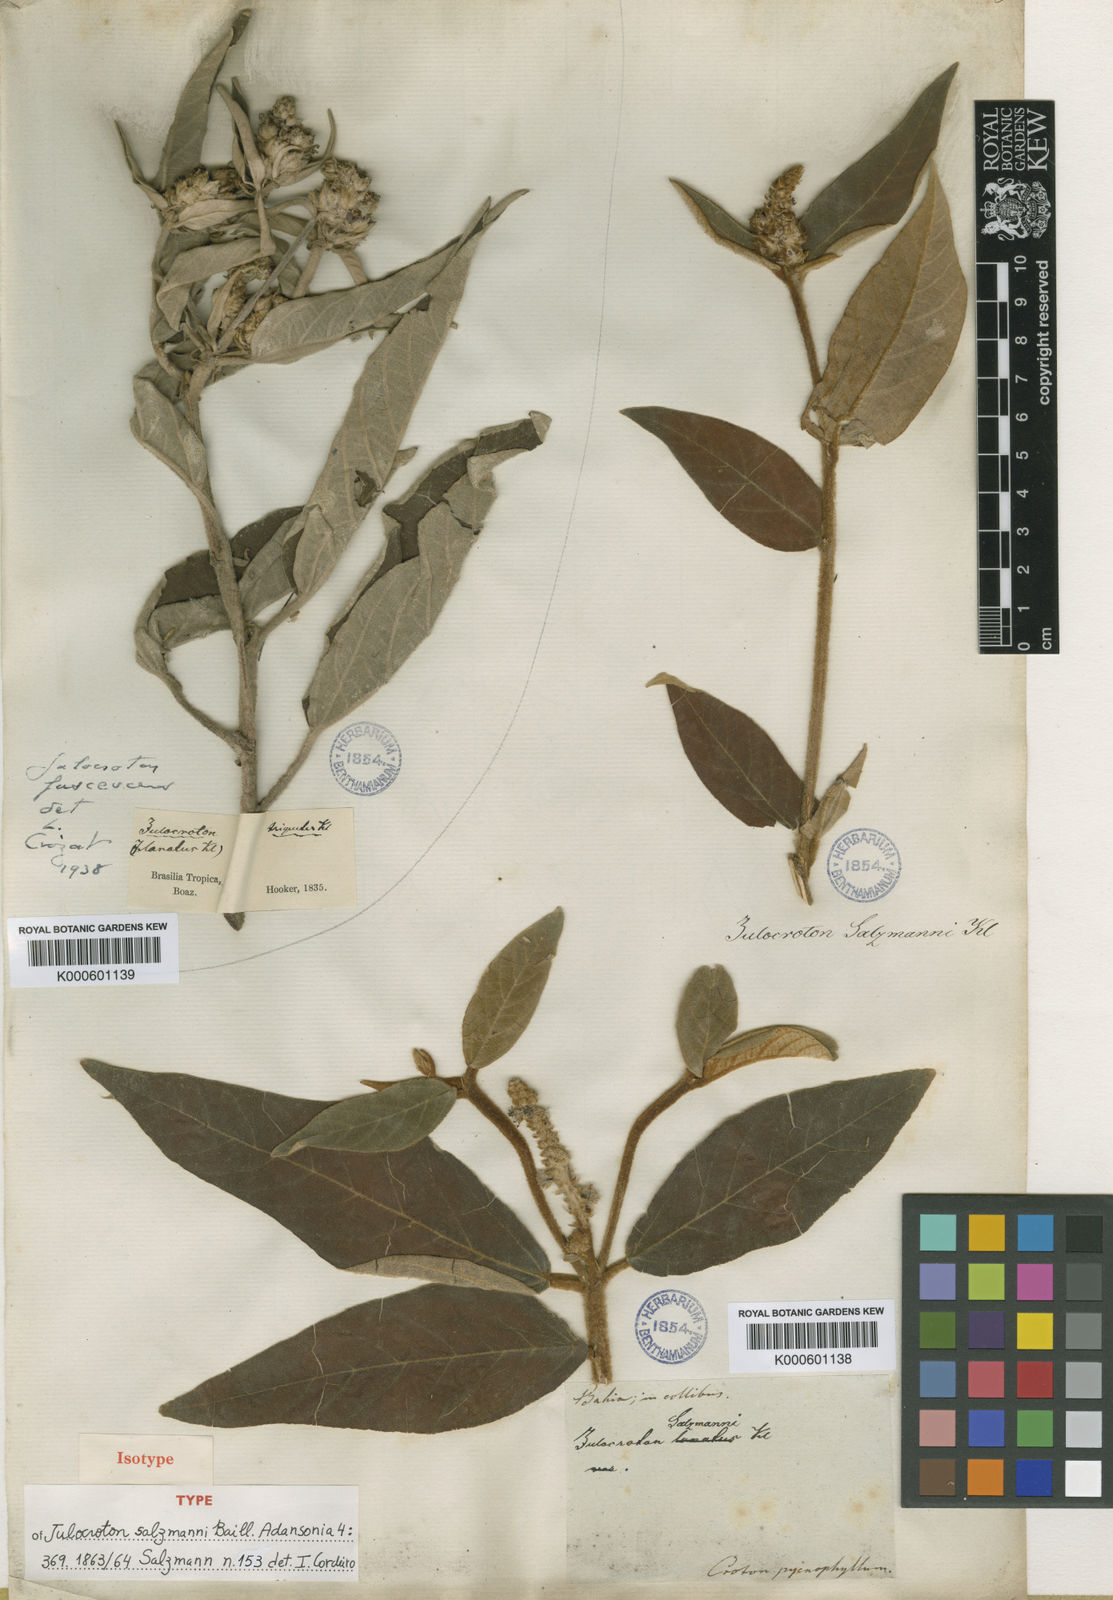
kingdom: Plantae
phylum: Tracheophyta
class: Magnoliopsida
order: Malpighiales
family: Euphorbiaceae
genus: Croton
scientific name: Croton salzmannii
